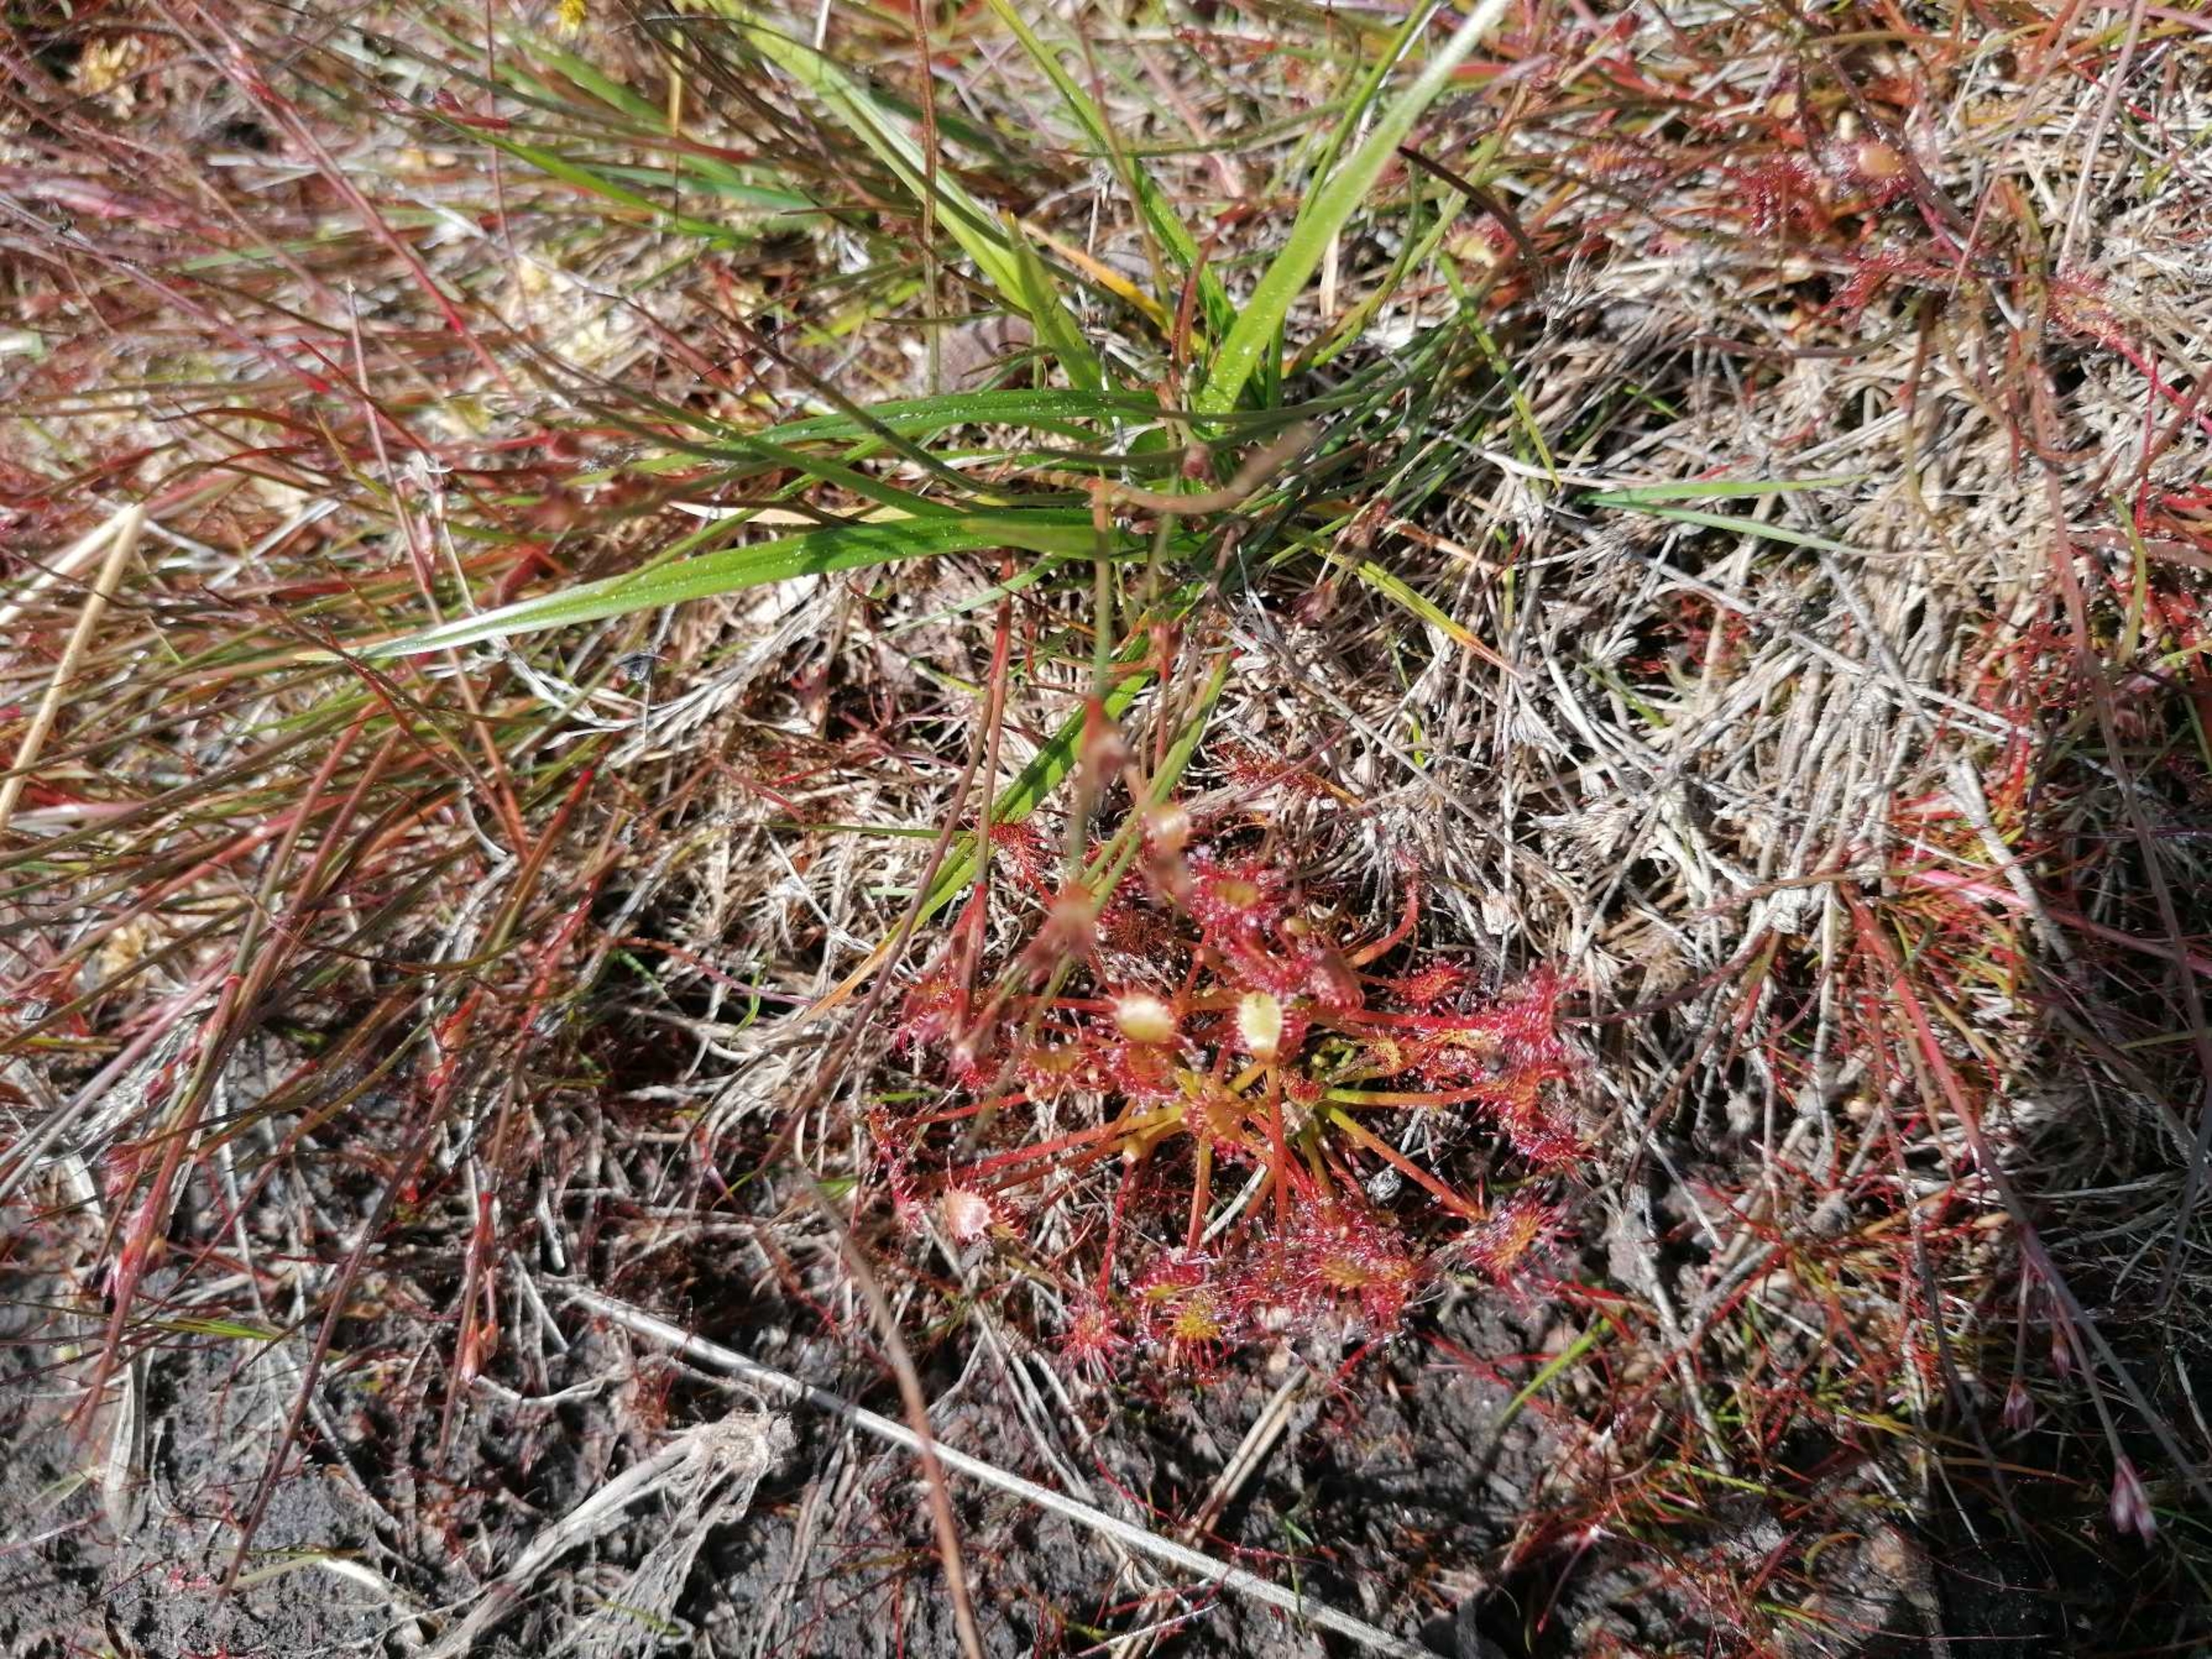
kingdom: Plantae
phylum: Tracheophyta
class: Magnoliopsida
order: Caryophyllales
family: Droseraceae
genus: Drosera
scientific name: Drosera rotundifolia
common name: Rundbladet soldug
